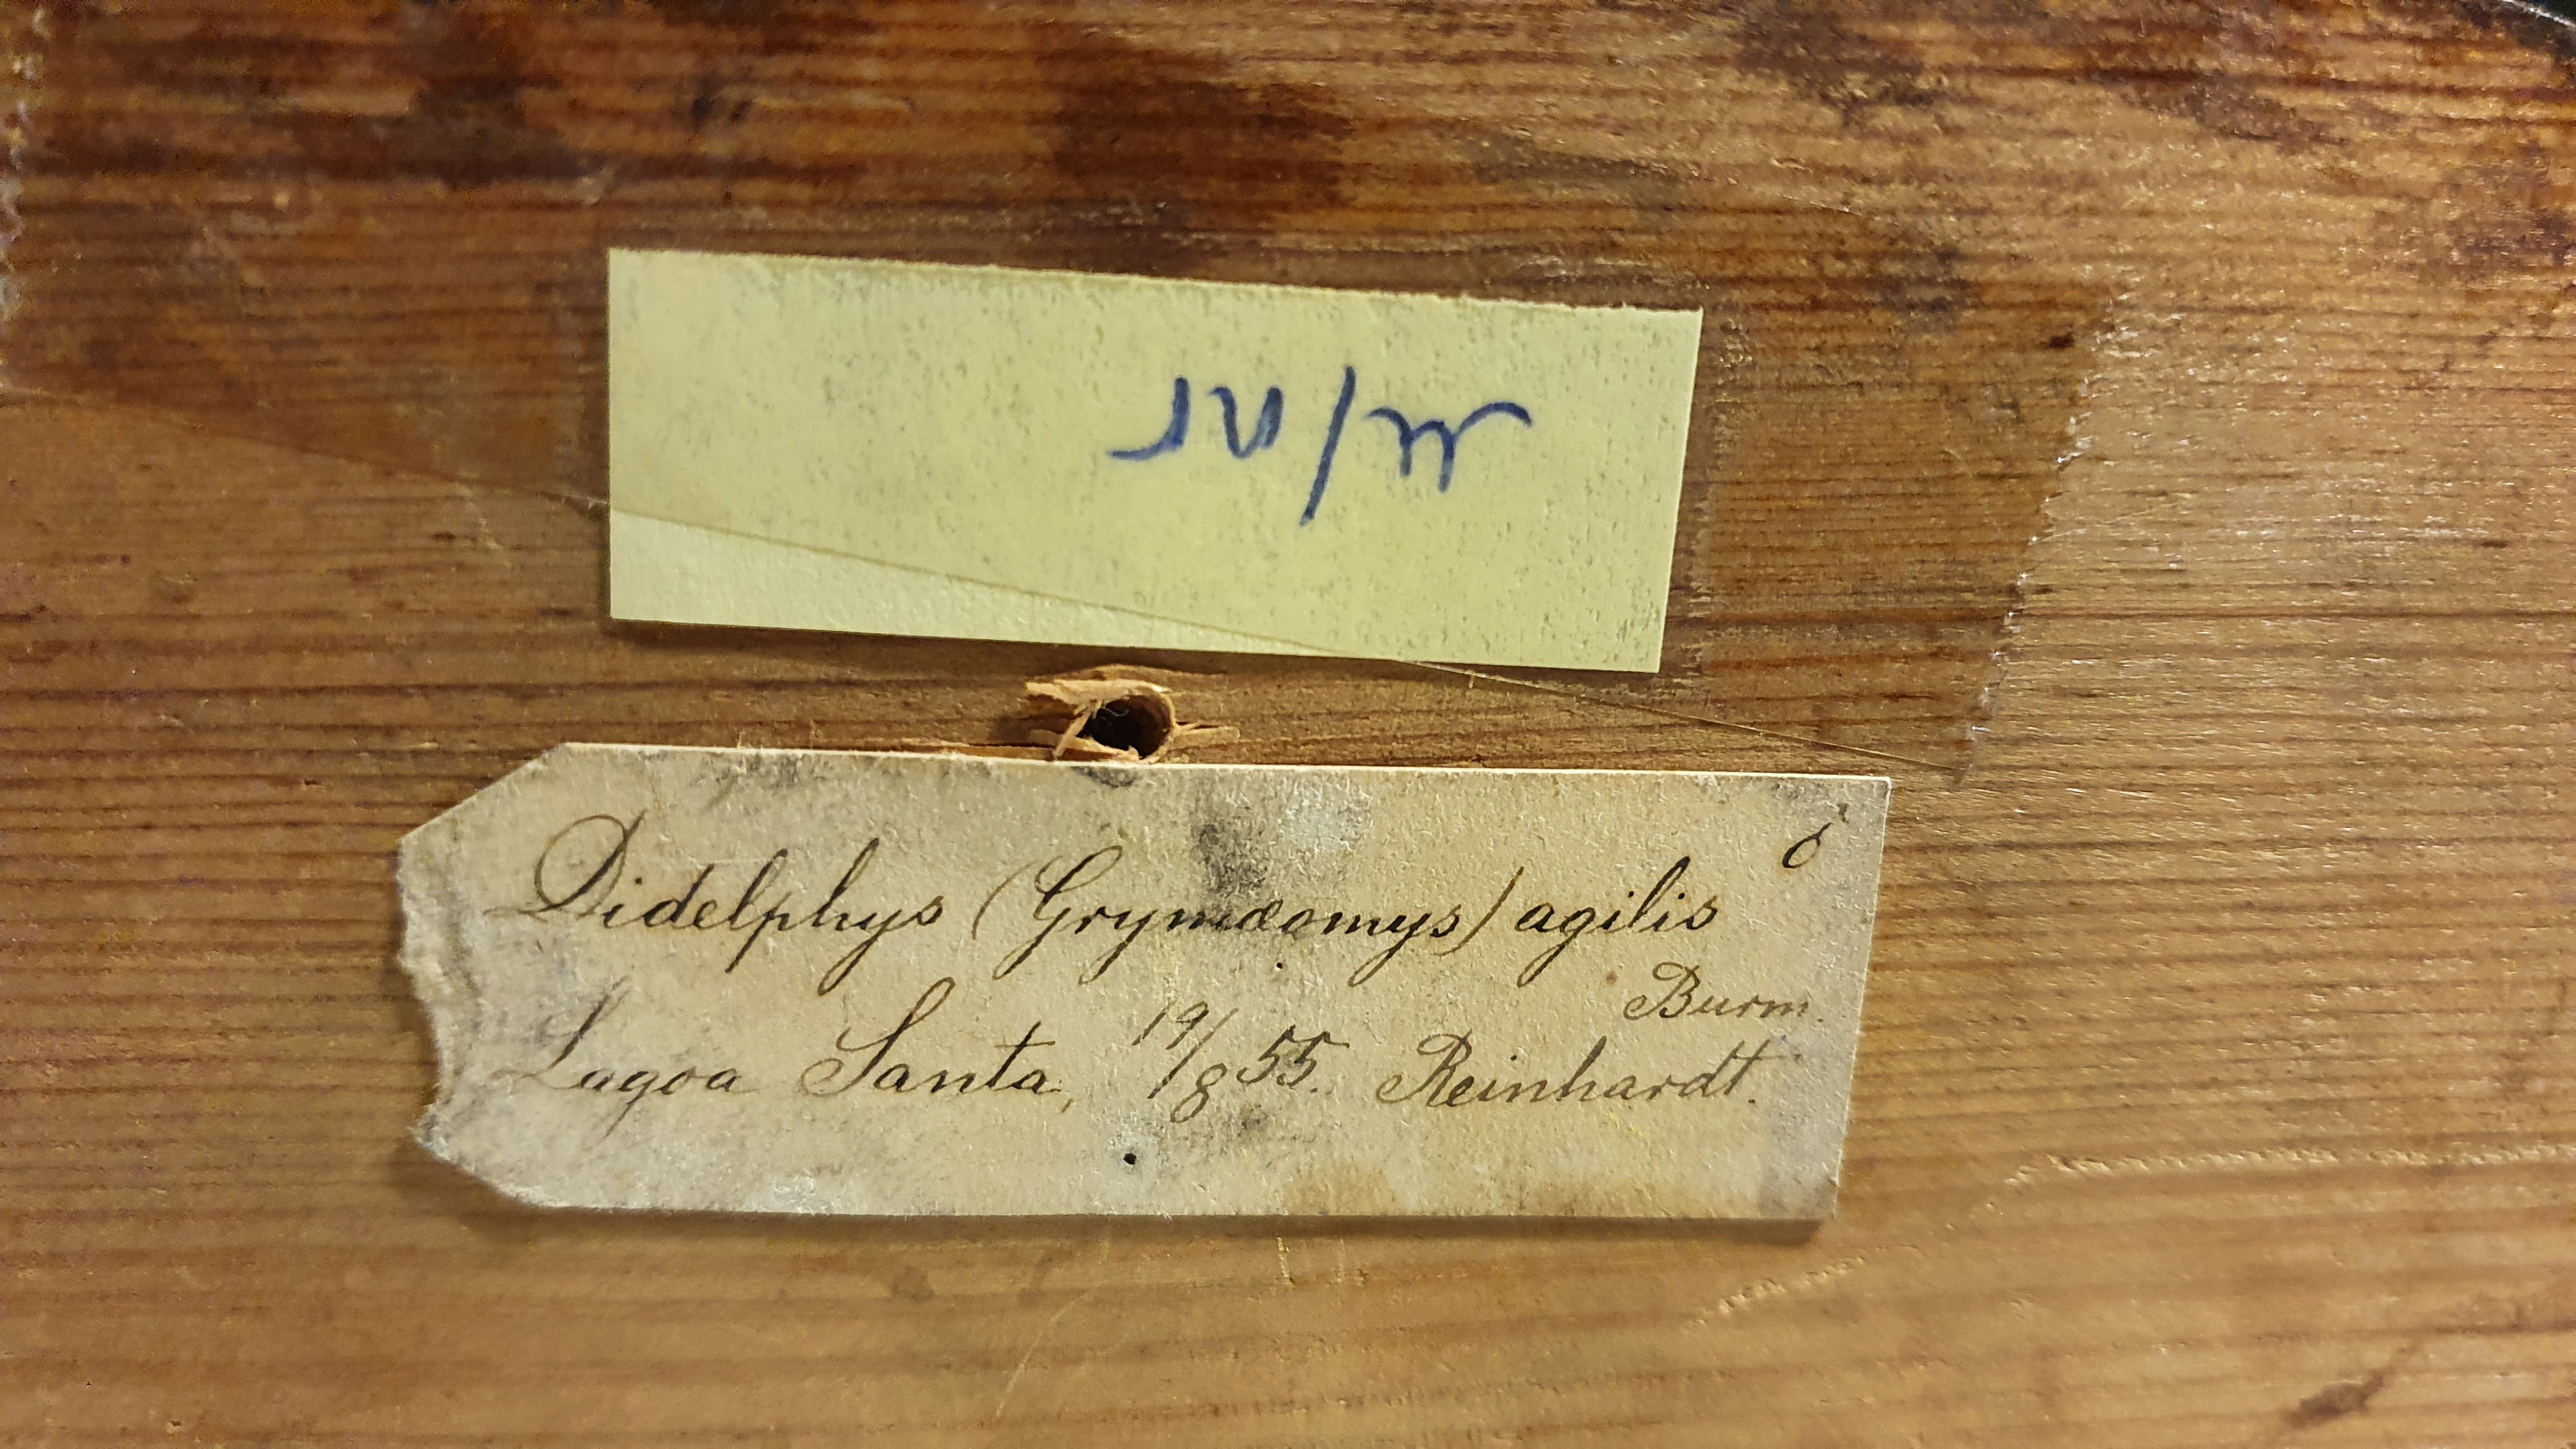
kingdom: Animalia
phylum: Chordata
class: Mammalia
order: Didelphimorphia
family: Didelphidae
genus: Gracilinanus
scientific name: Gracilinanus agilis
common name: Agile gracile opossum
